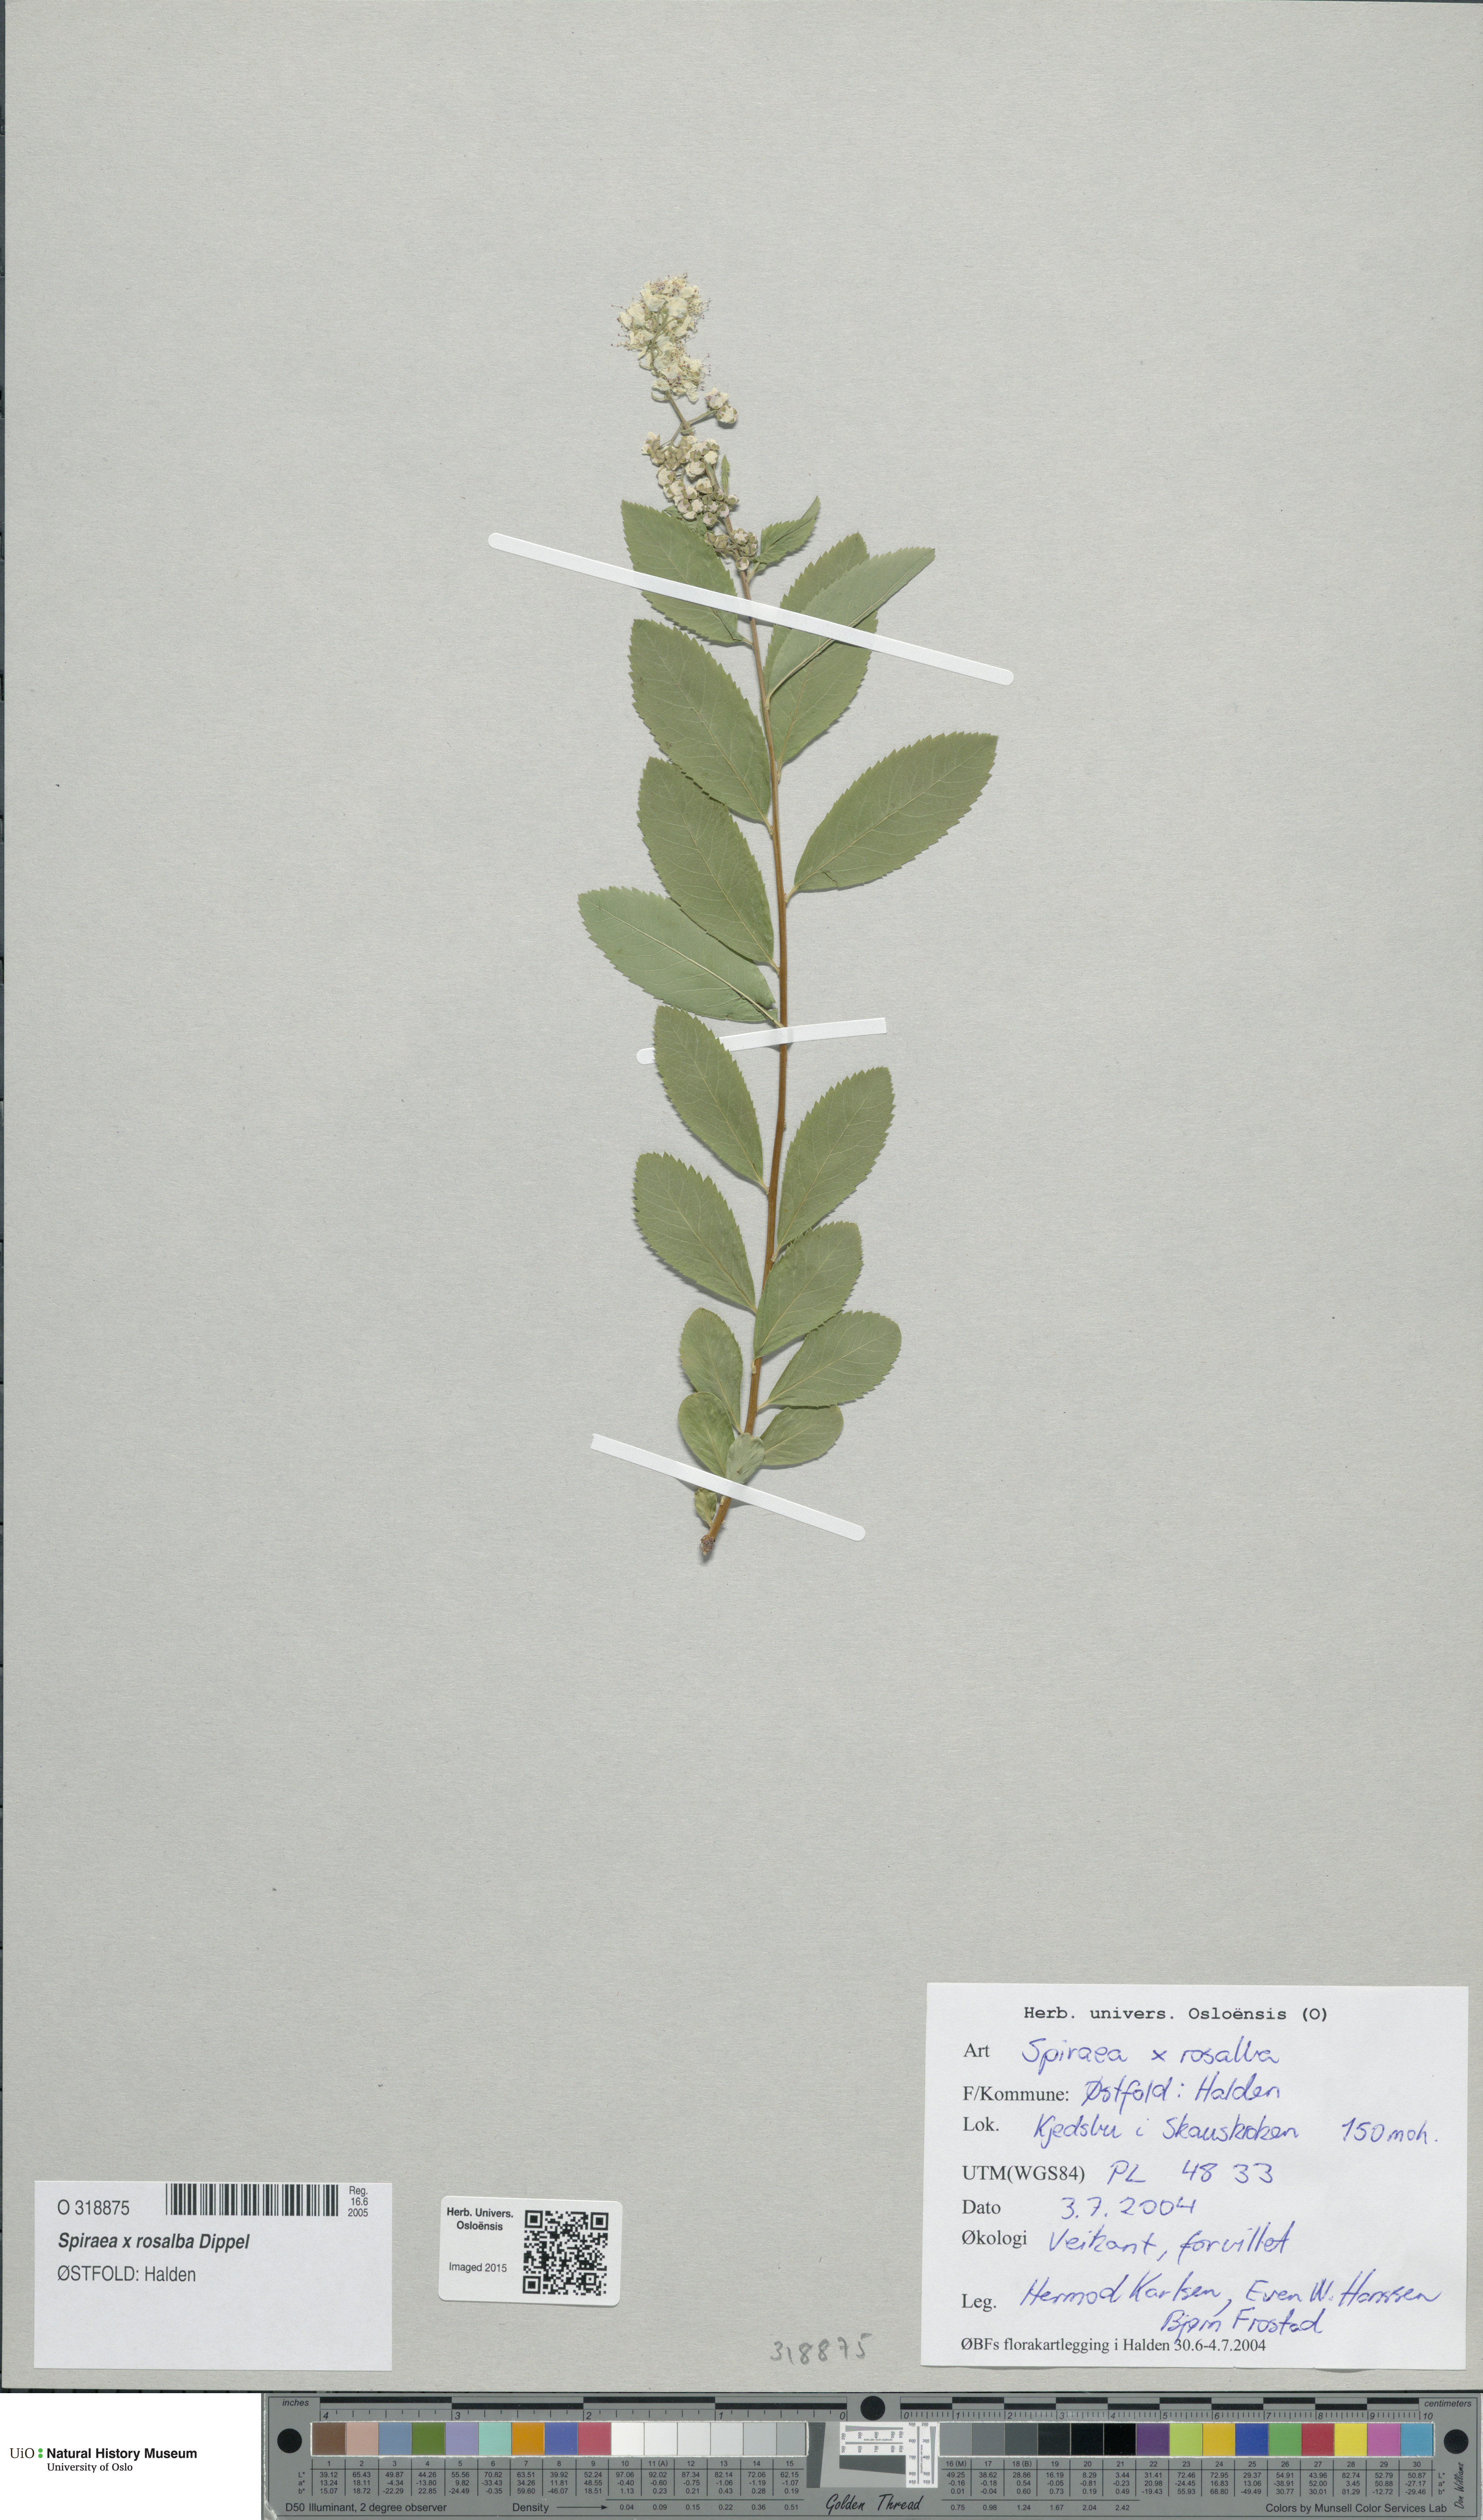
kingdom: Plantae
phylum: Tracheophyta
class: Magnoliopsida
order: Rosales
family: Rosaceae
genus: Spiraea
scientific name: Spiraea rosalba
